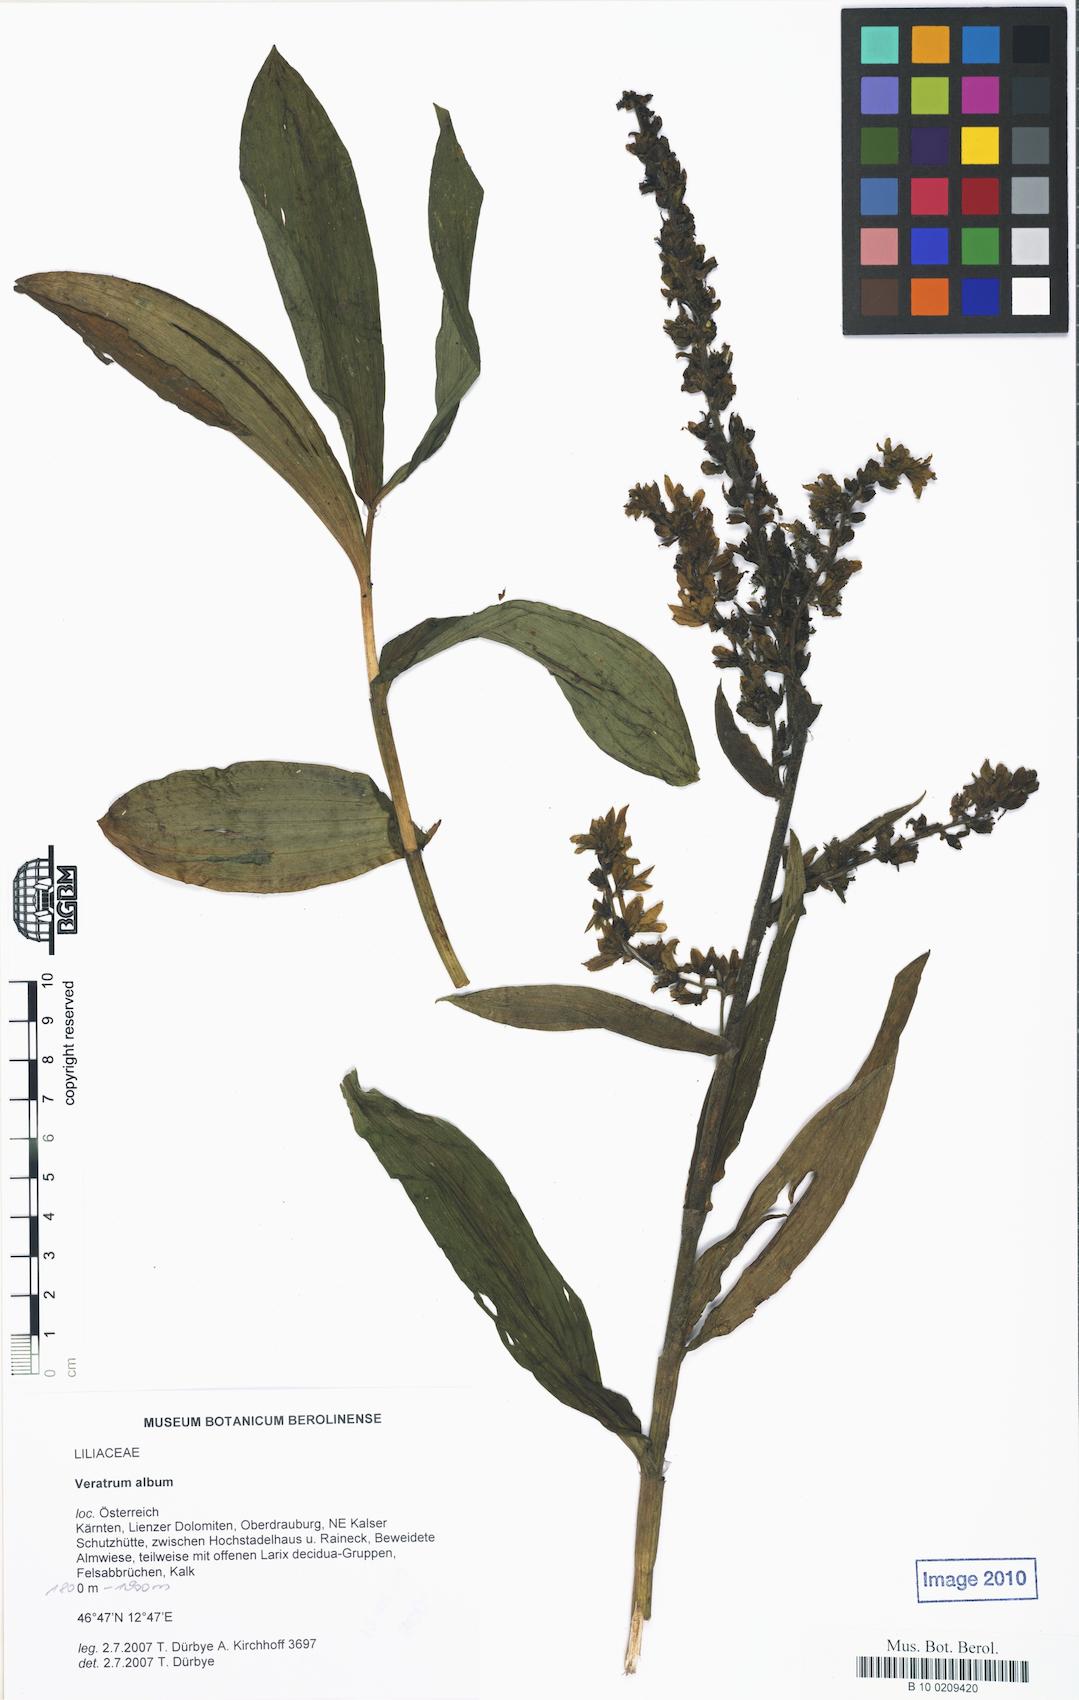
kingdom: Plantae
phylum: Tracheophyta
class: Liliopsida
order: Liliales
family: Melanthiaceae
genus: Veratrum
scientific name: Veratrum album
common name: White veratrum
